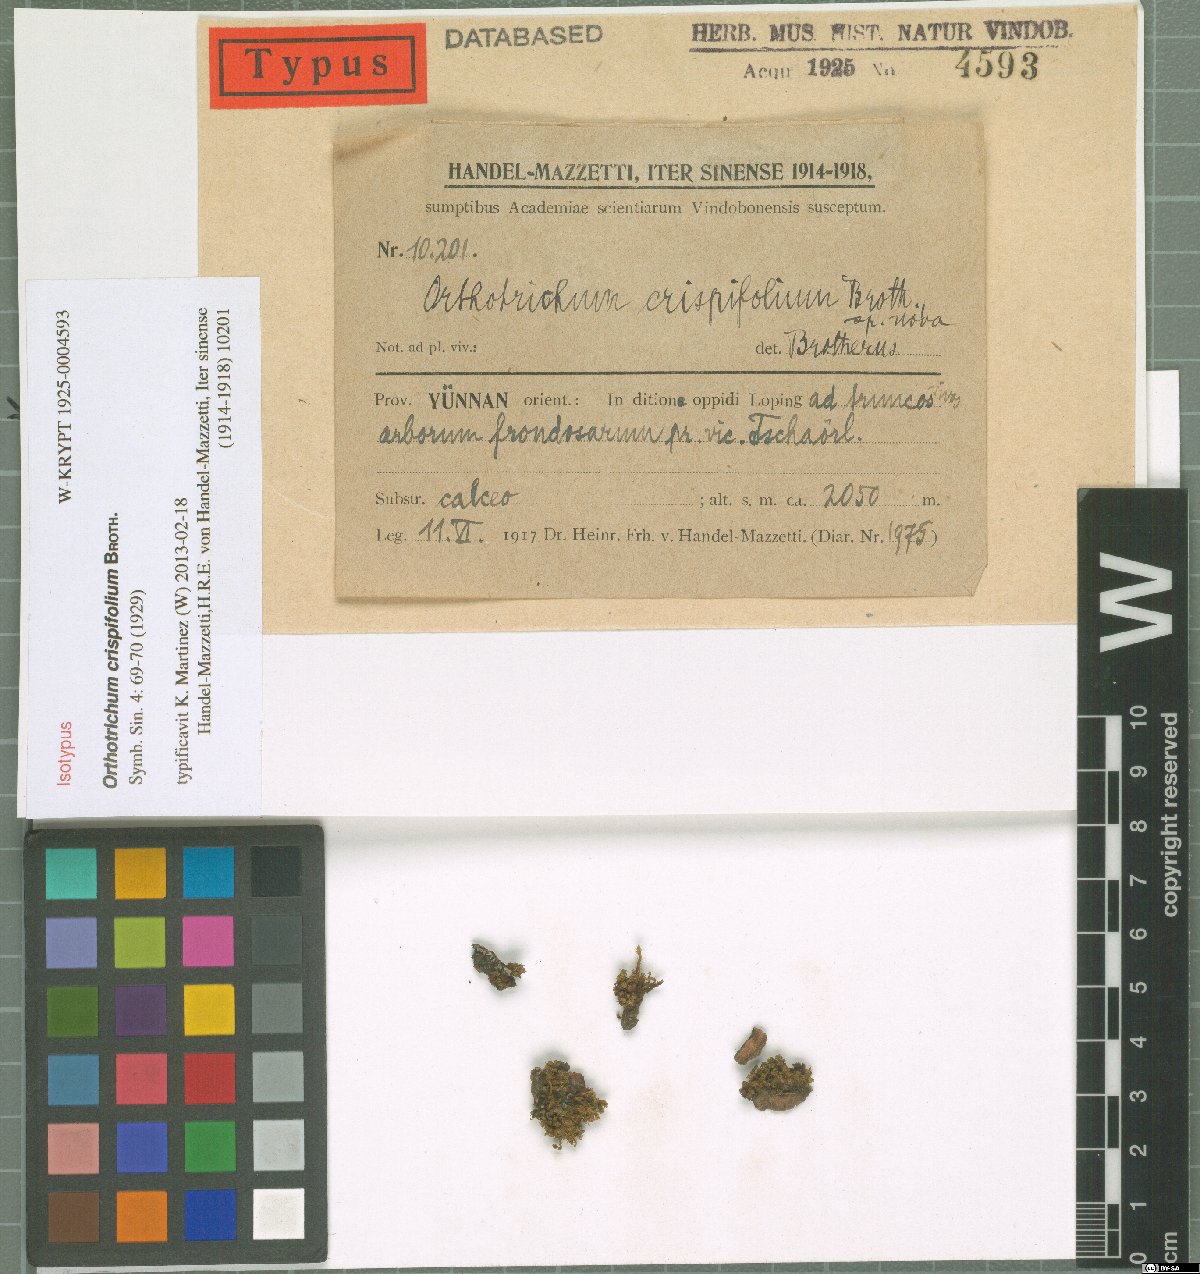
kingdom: Plantae
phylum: Bryophyta
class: Bryopsida
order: Orthotrichales
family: Orthotrichaceae
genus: Orthotrichum
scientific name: Orthotrichum erubescens
